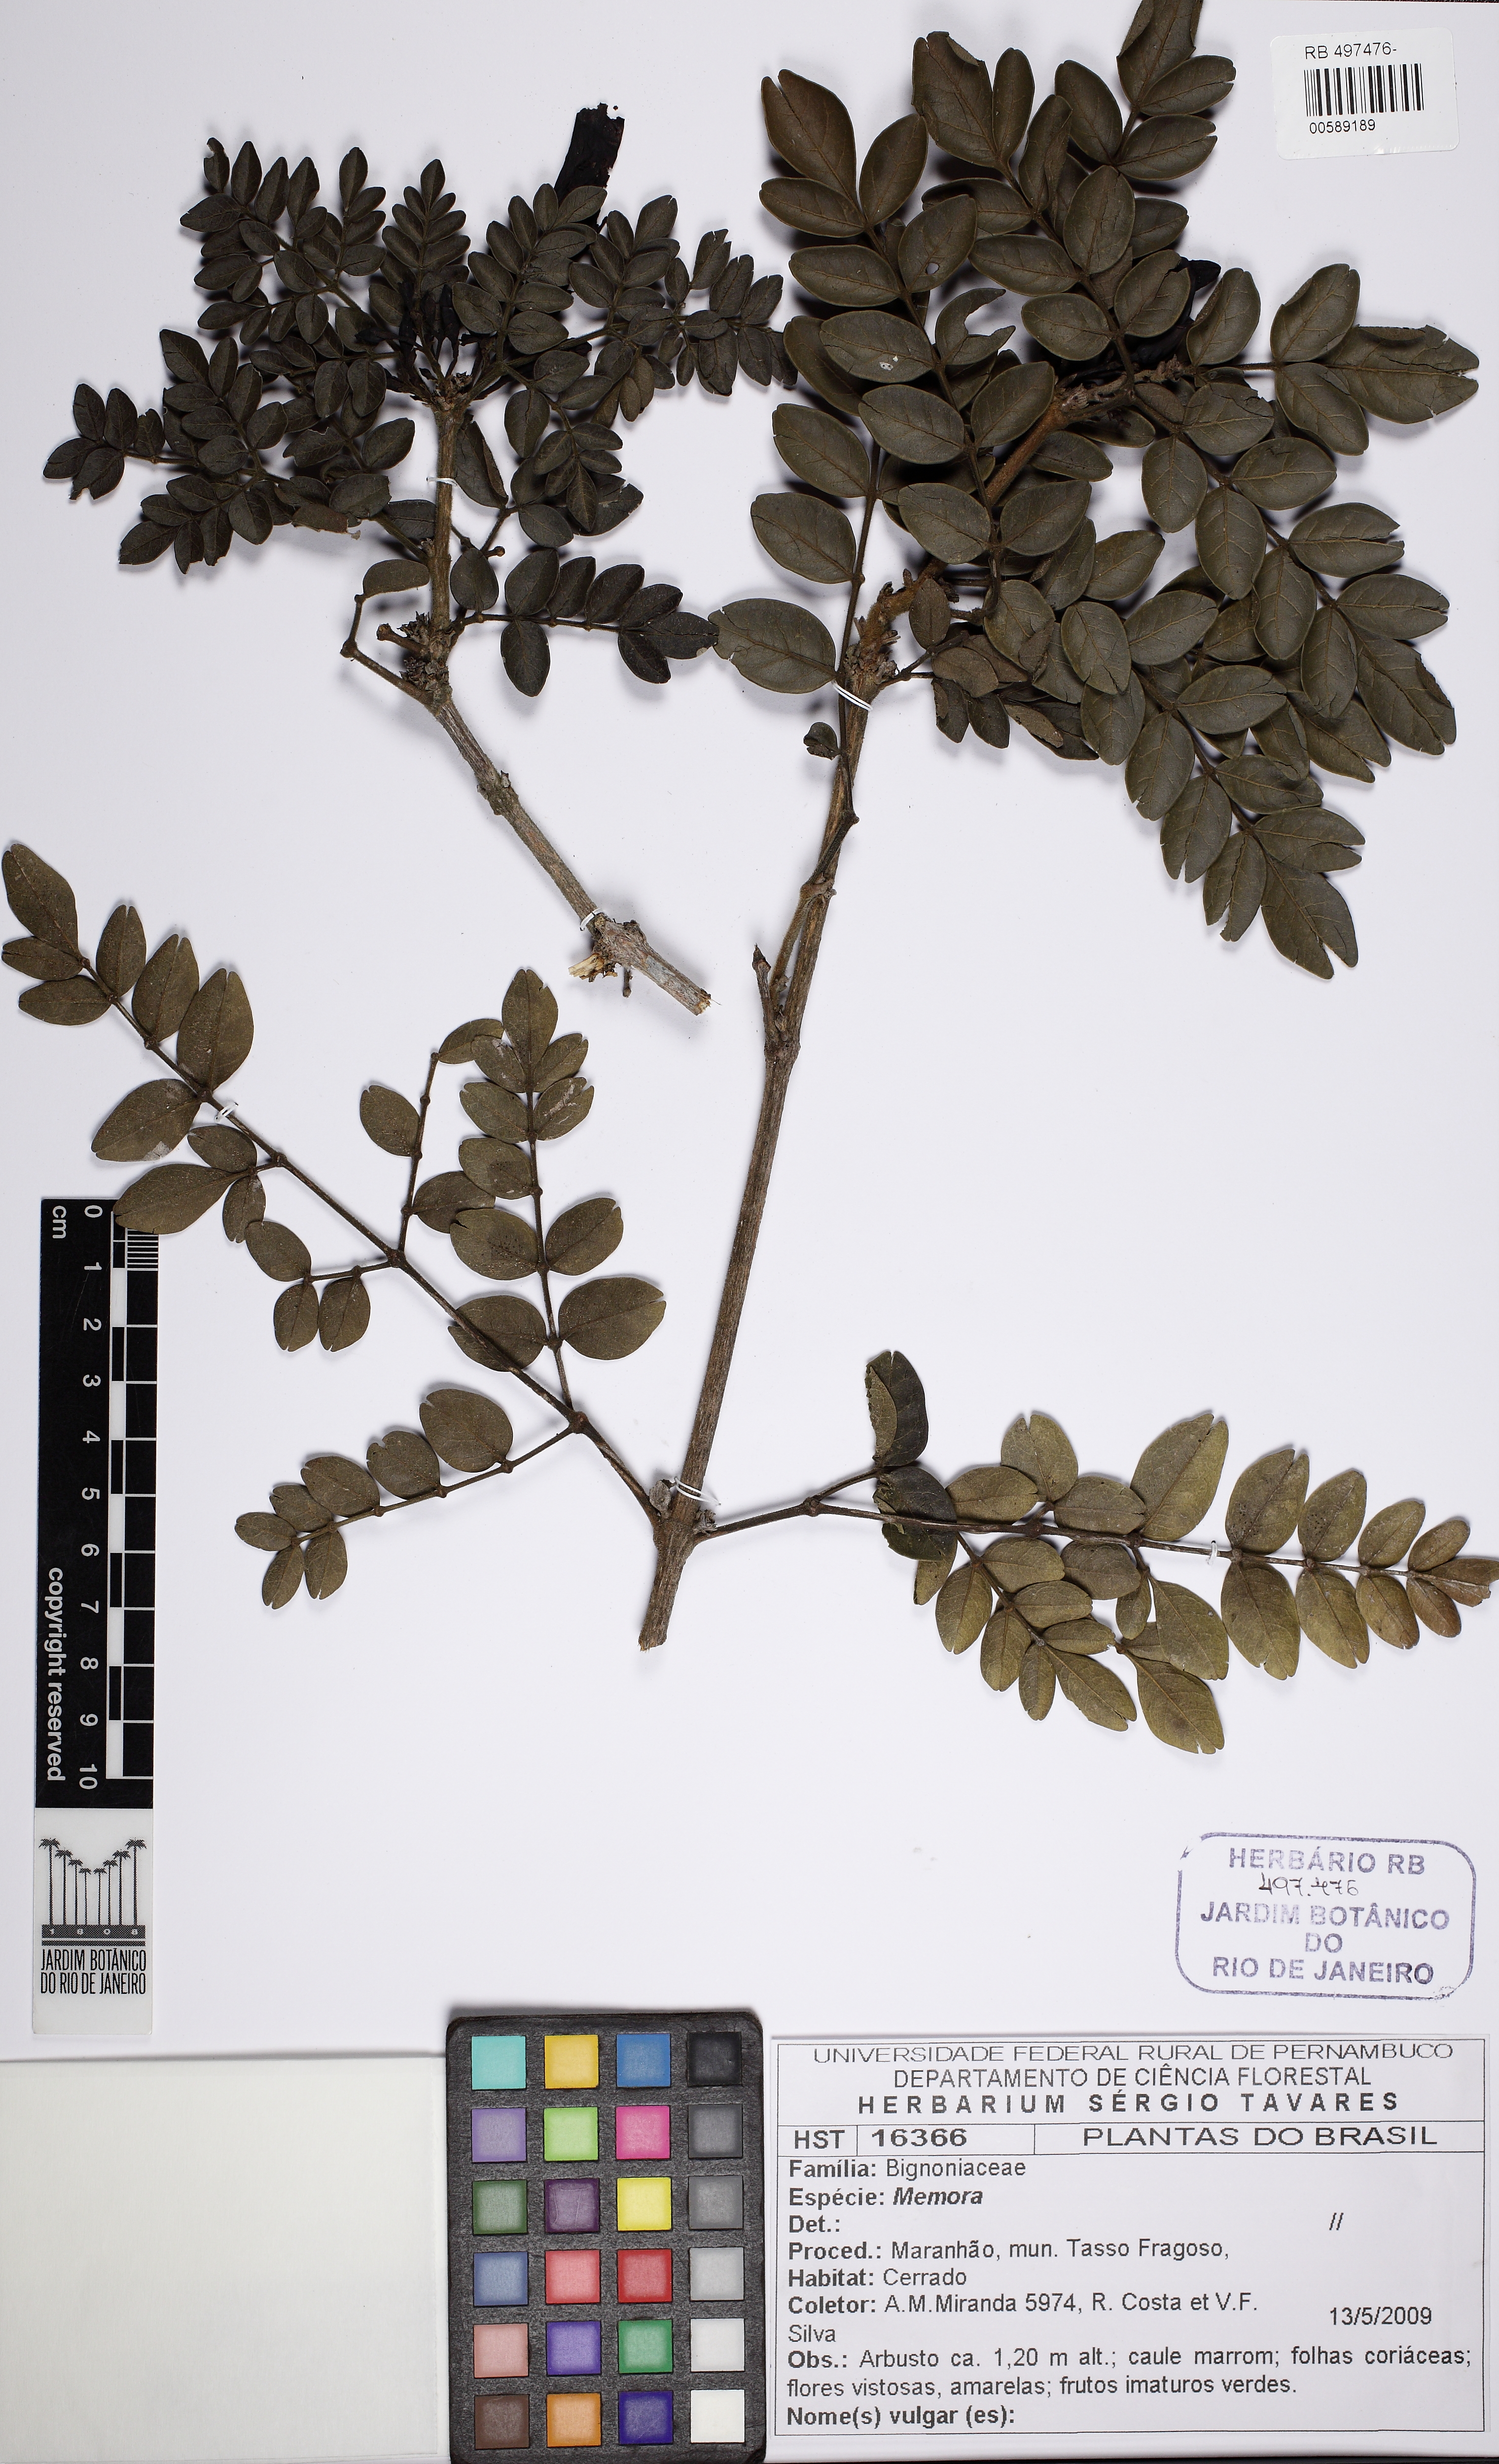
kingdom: Plantae
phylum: Tracheophyta
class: Magnoliopsida
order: Lamiales
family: Bignoniaceae
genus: Adenocalymma
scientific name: Adenocalymma
